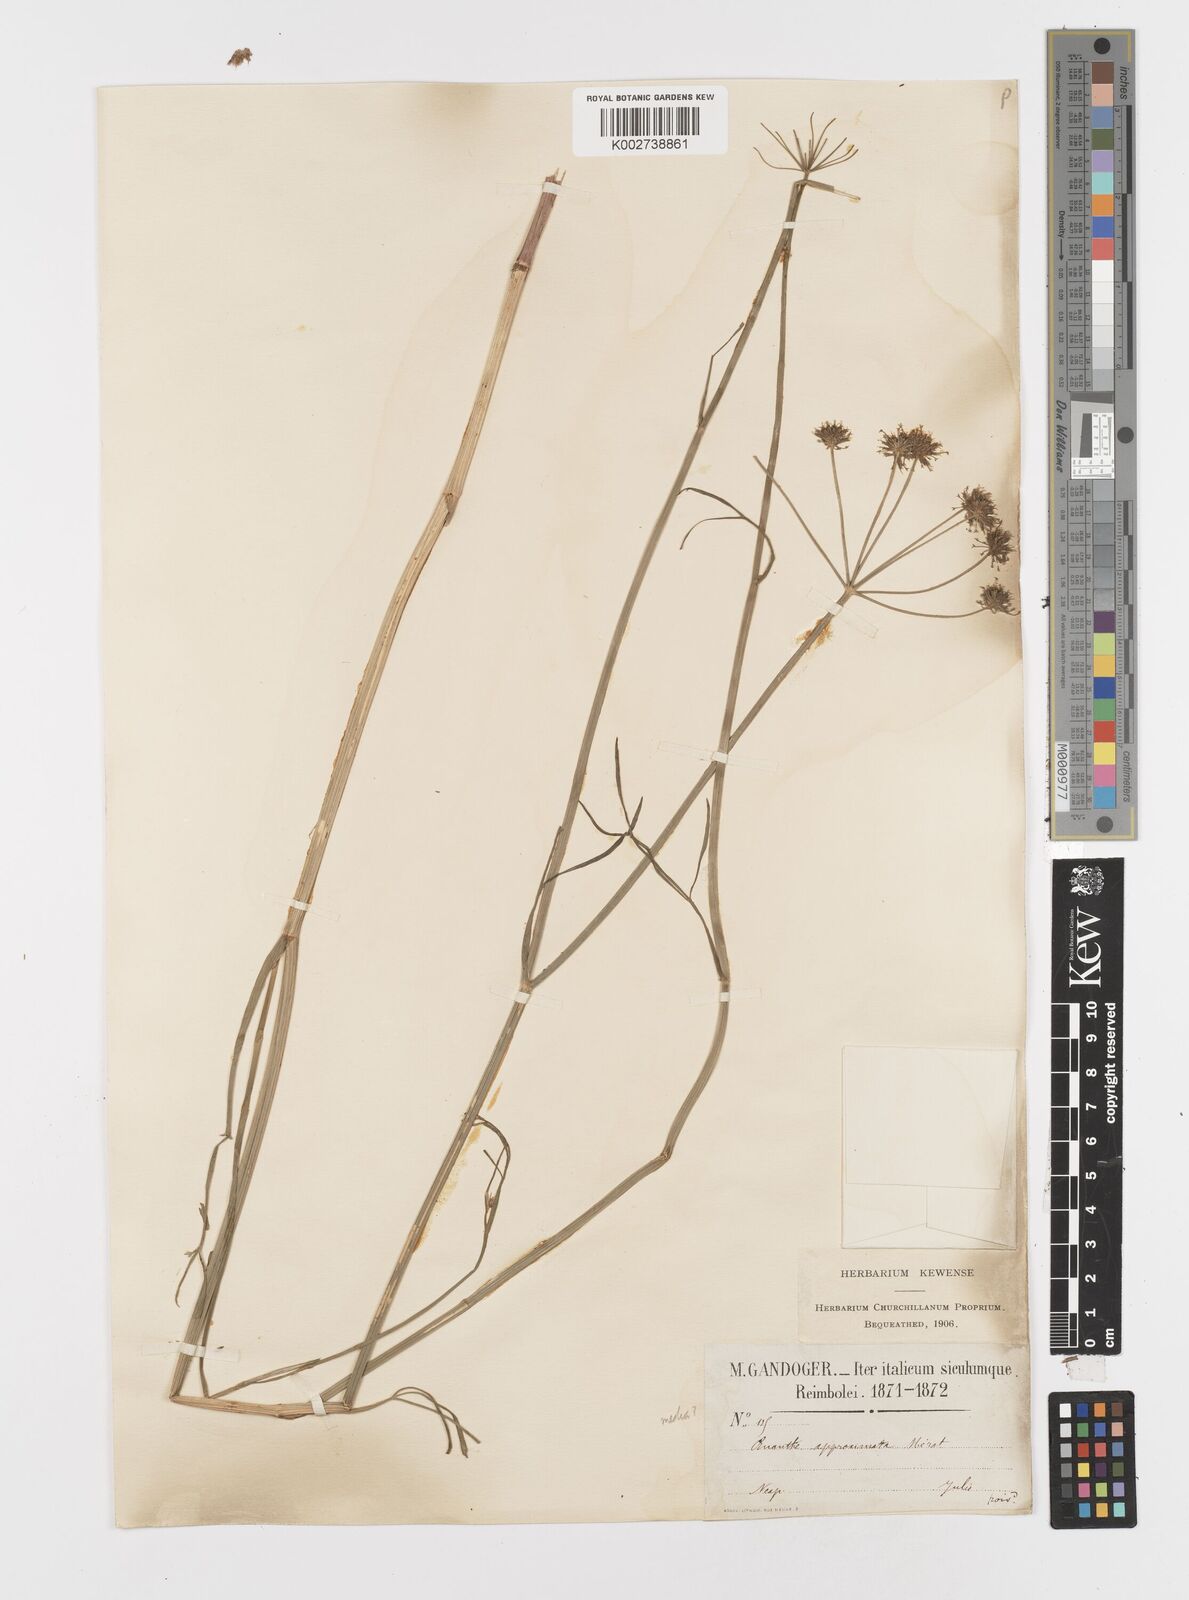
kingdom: Plantae
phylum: Tracheophyta
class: Magnoliopsida
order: Apiales
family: Apiaceae
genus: Oenanthe
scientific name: Oenanthe silaifolia
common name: Narrow-leaved water-dropwort
